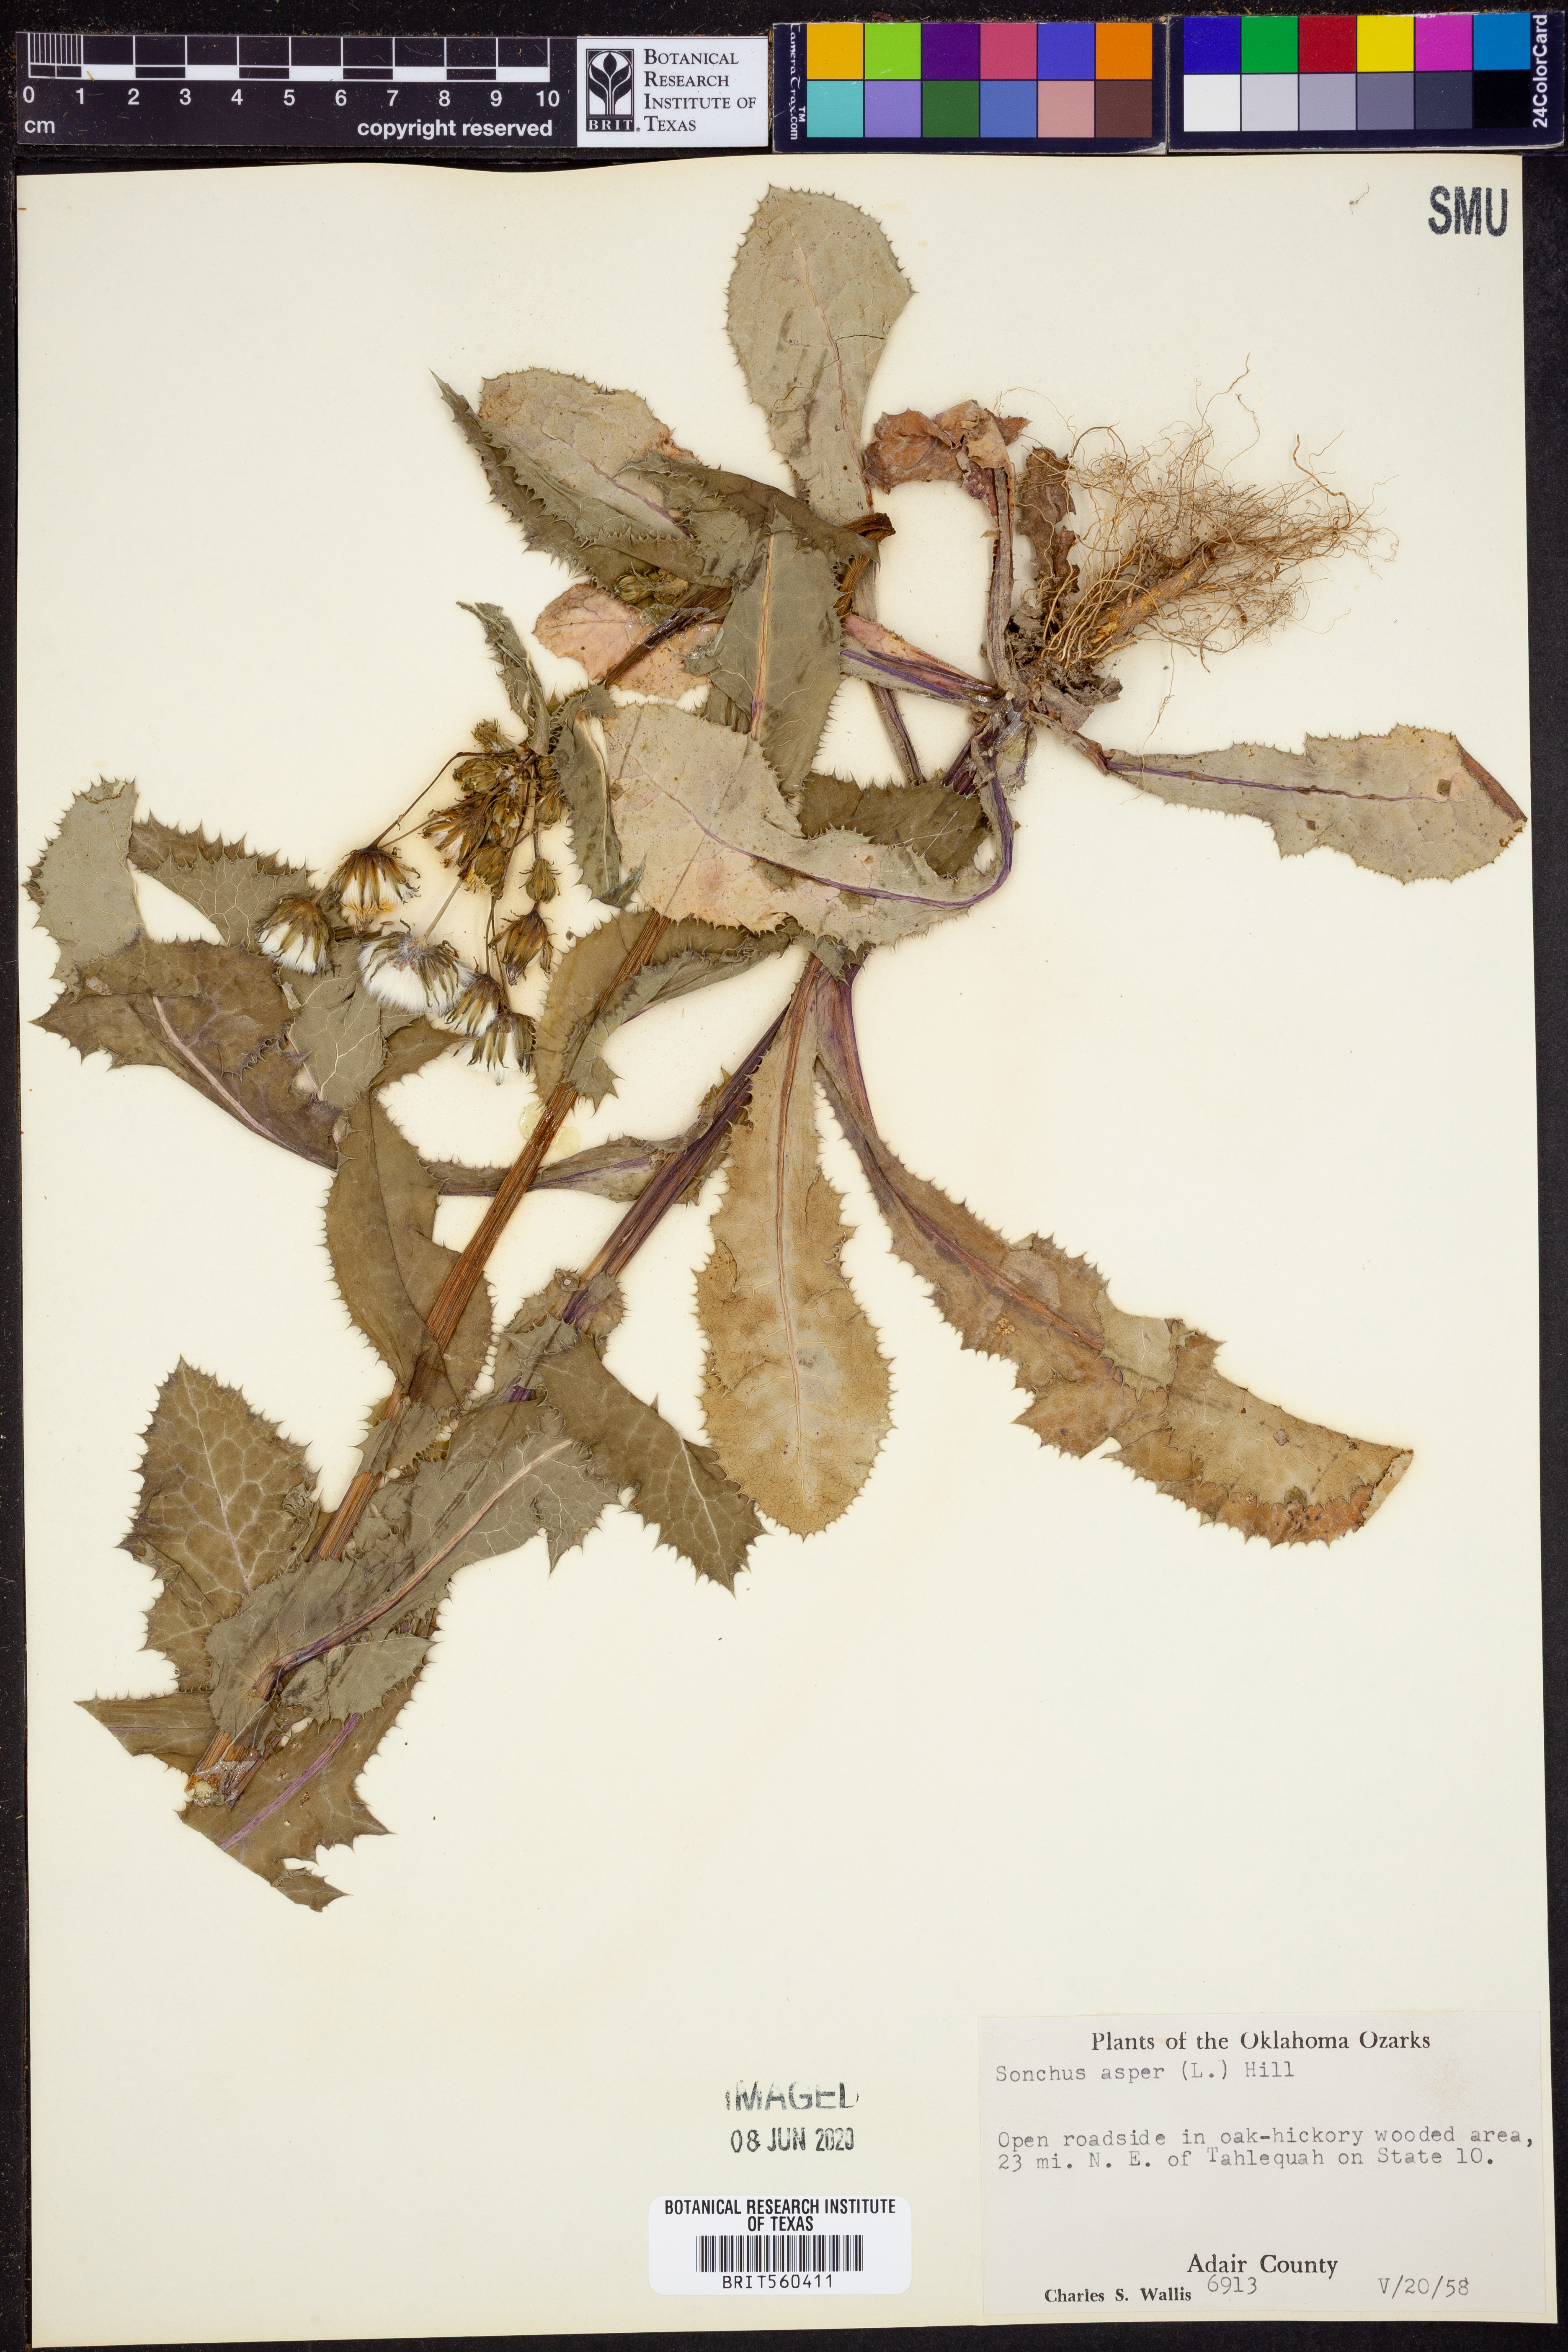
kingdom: Plantae
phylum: Tracheophyta
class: Magnoliopsida
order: Asterales
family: Asteraceae
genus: Sonchus
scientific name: Sonchus asper
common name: Prickly sow-thistle
